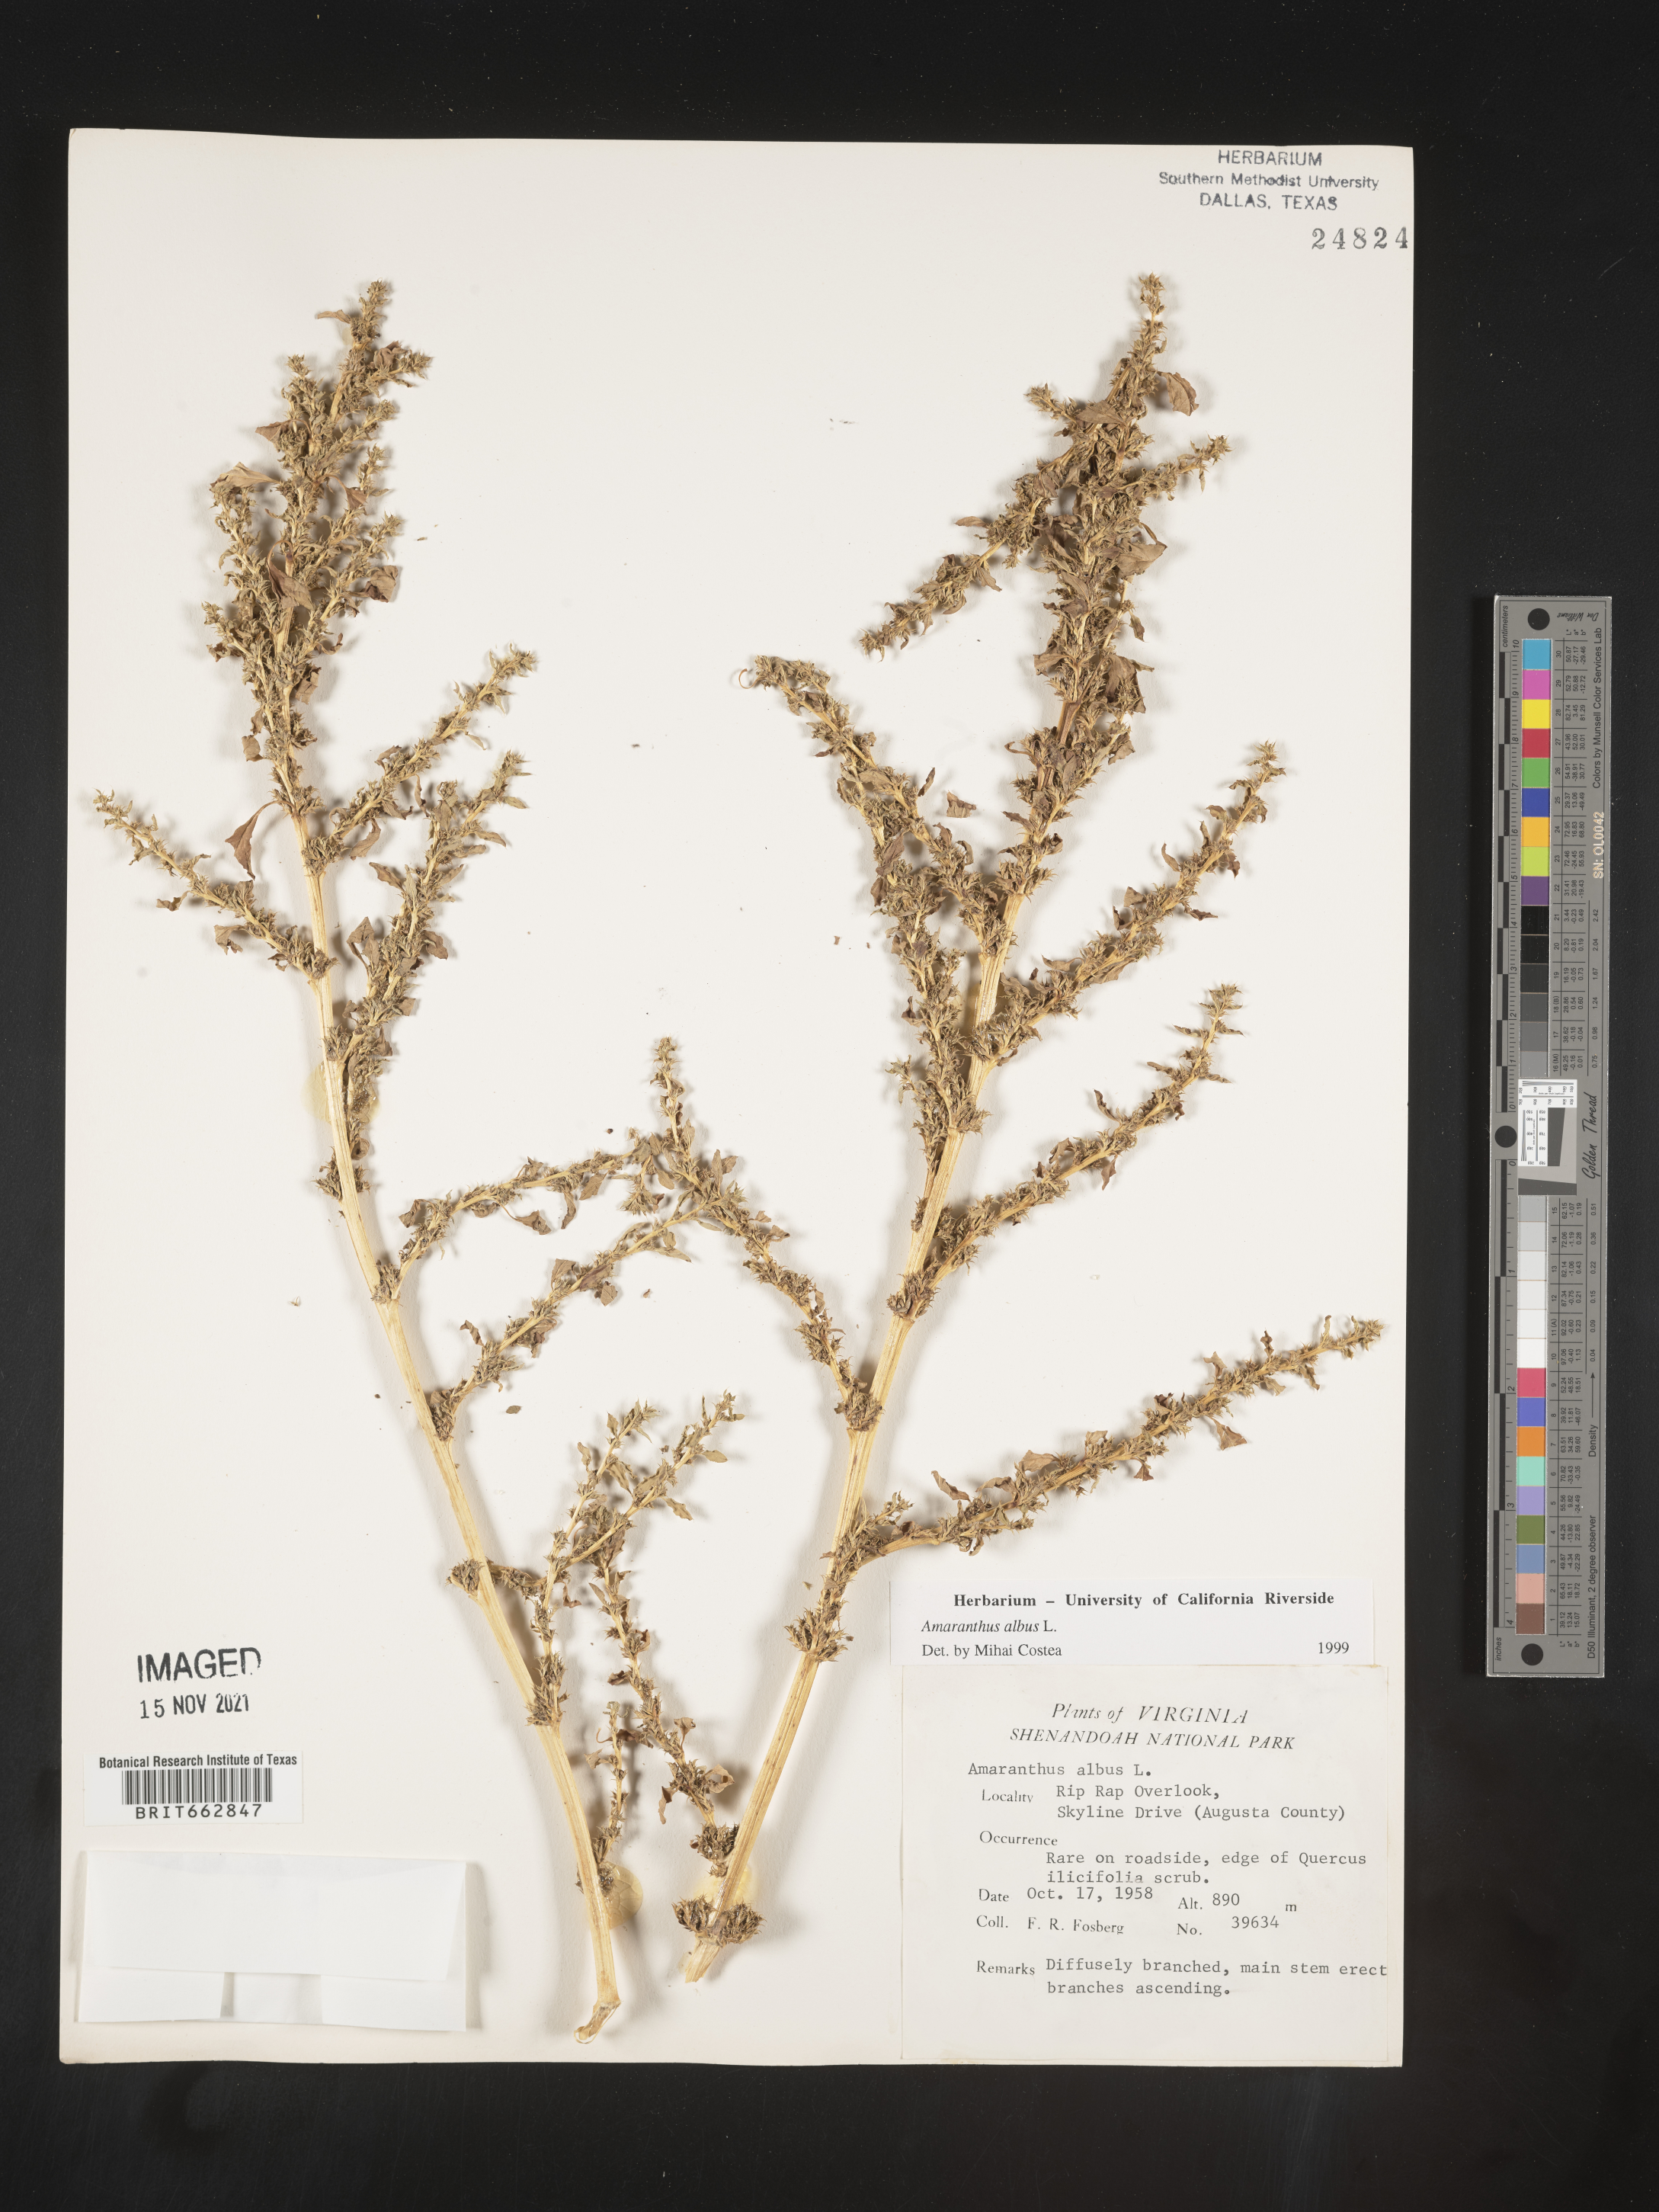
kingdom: Plantae
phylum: Tracheophyta
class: Magnoliopsida
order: Caryophyllales
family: Amaranthaceae
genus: Amaranthus
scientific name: Amaranthus albus
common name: White pigweed
